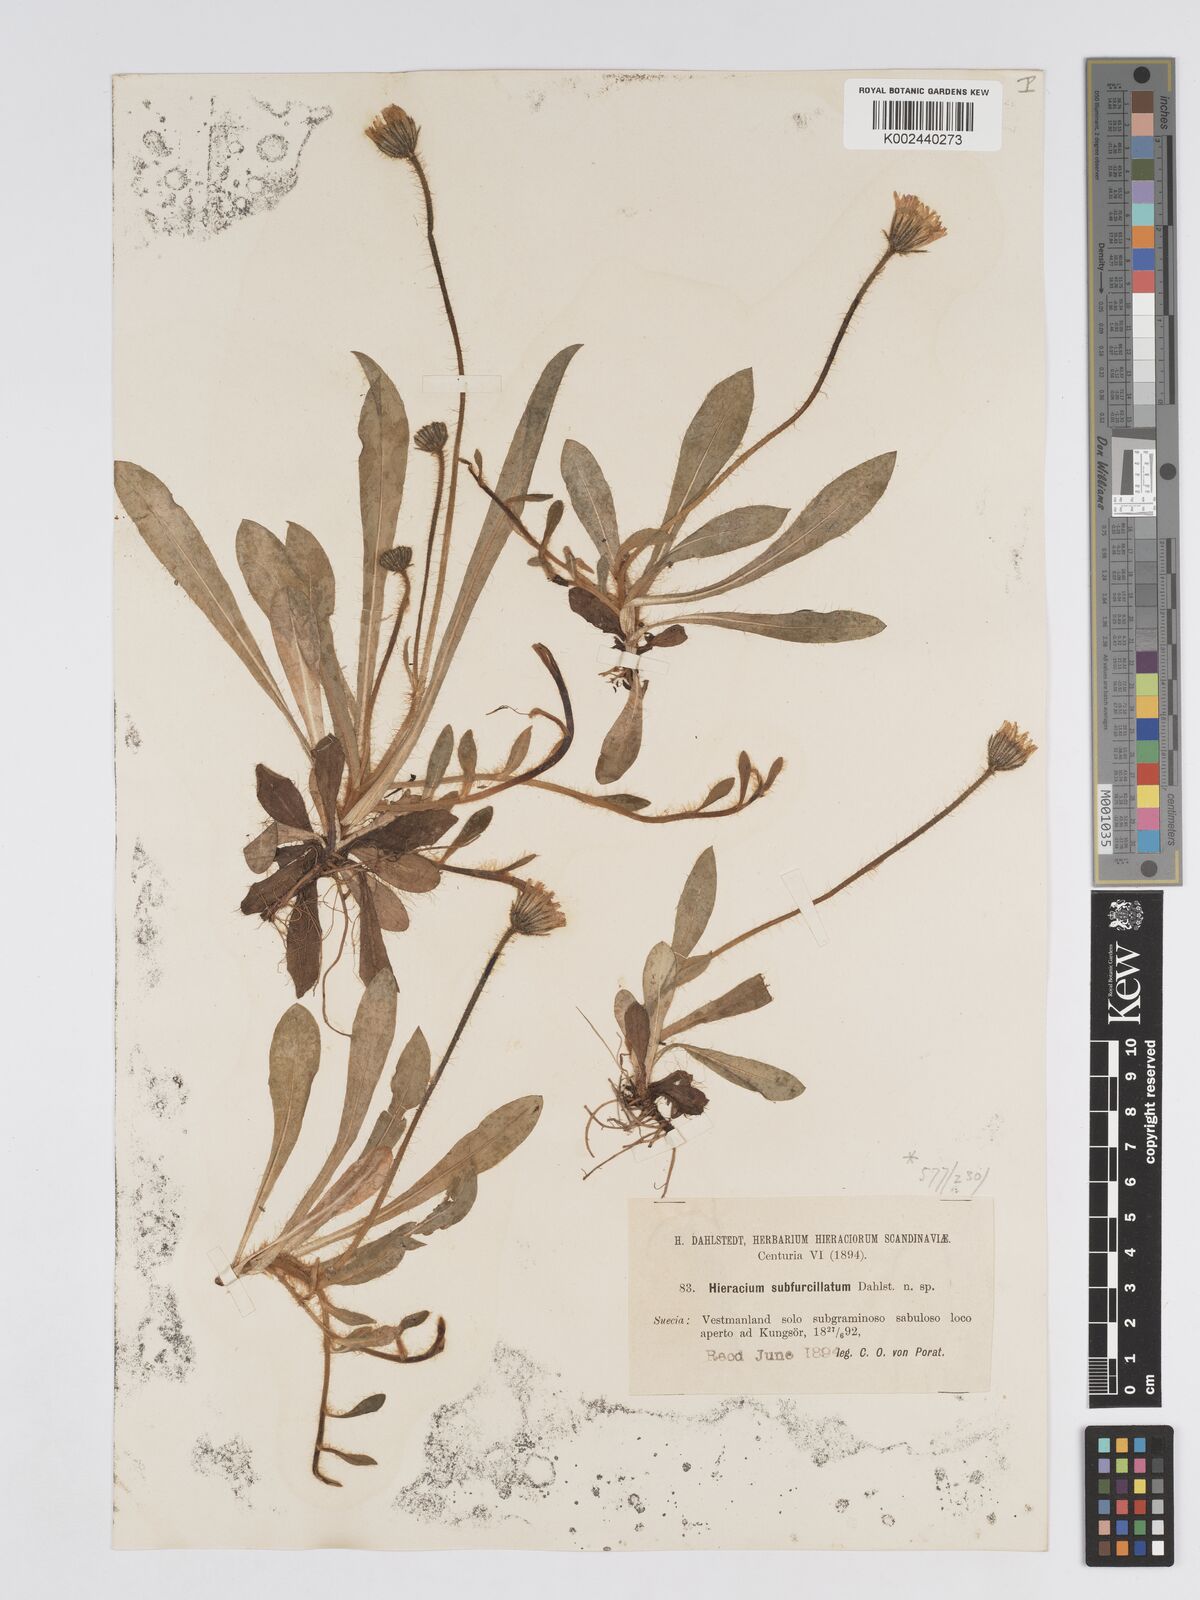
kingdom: Plantae
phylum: Tracheophyta
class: Magnoliopsida
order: Asterales
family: Asteraceae
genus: Pilosella
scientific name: Pilosella officinarum
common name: Mouse-ear hawkweed
